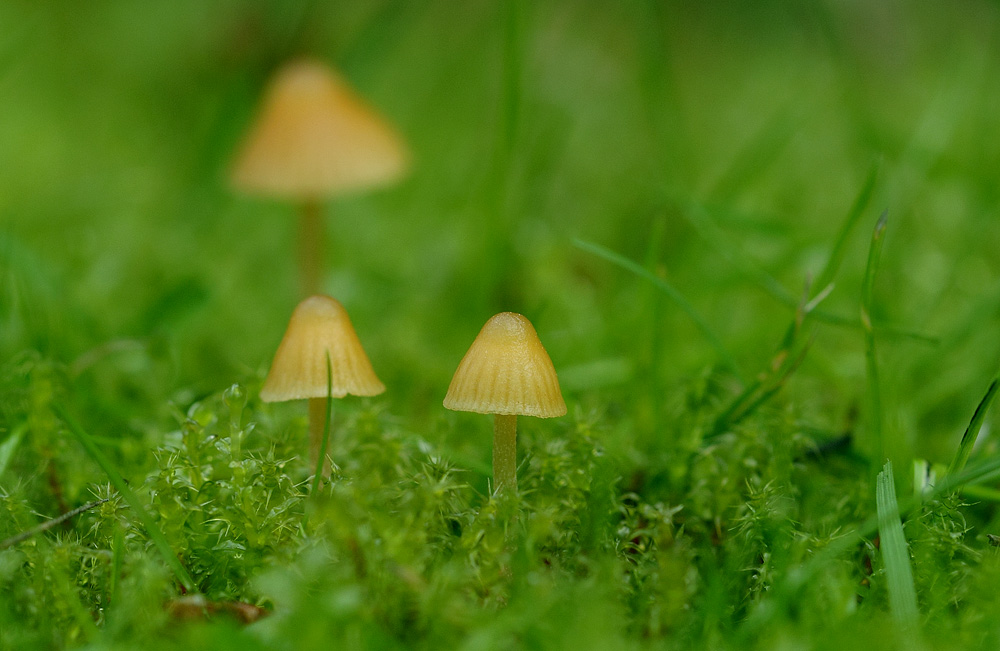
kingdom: Fungi
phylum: Basidiomycota
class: Agaricomycetes
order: Agaricales
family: Hymenogastraceae
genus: Galerina
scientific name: Galerina clavata
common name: kær-hjelmhat
